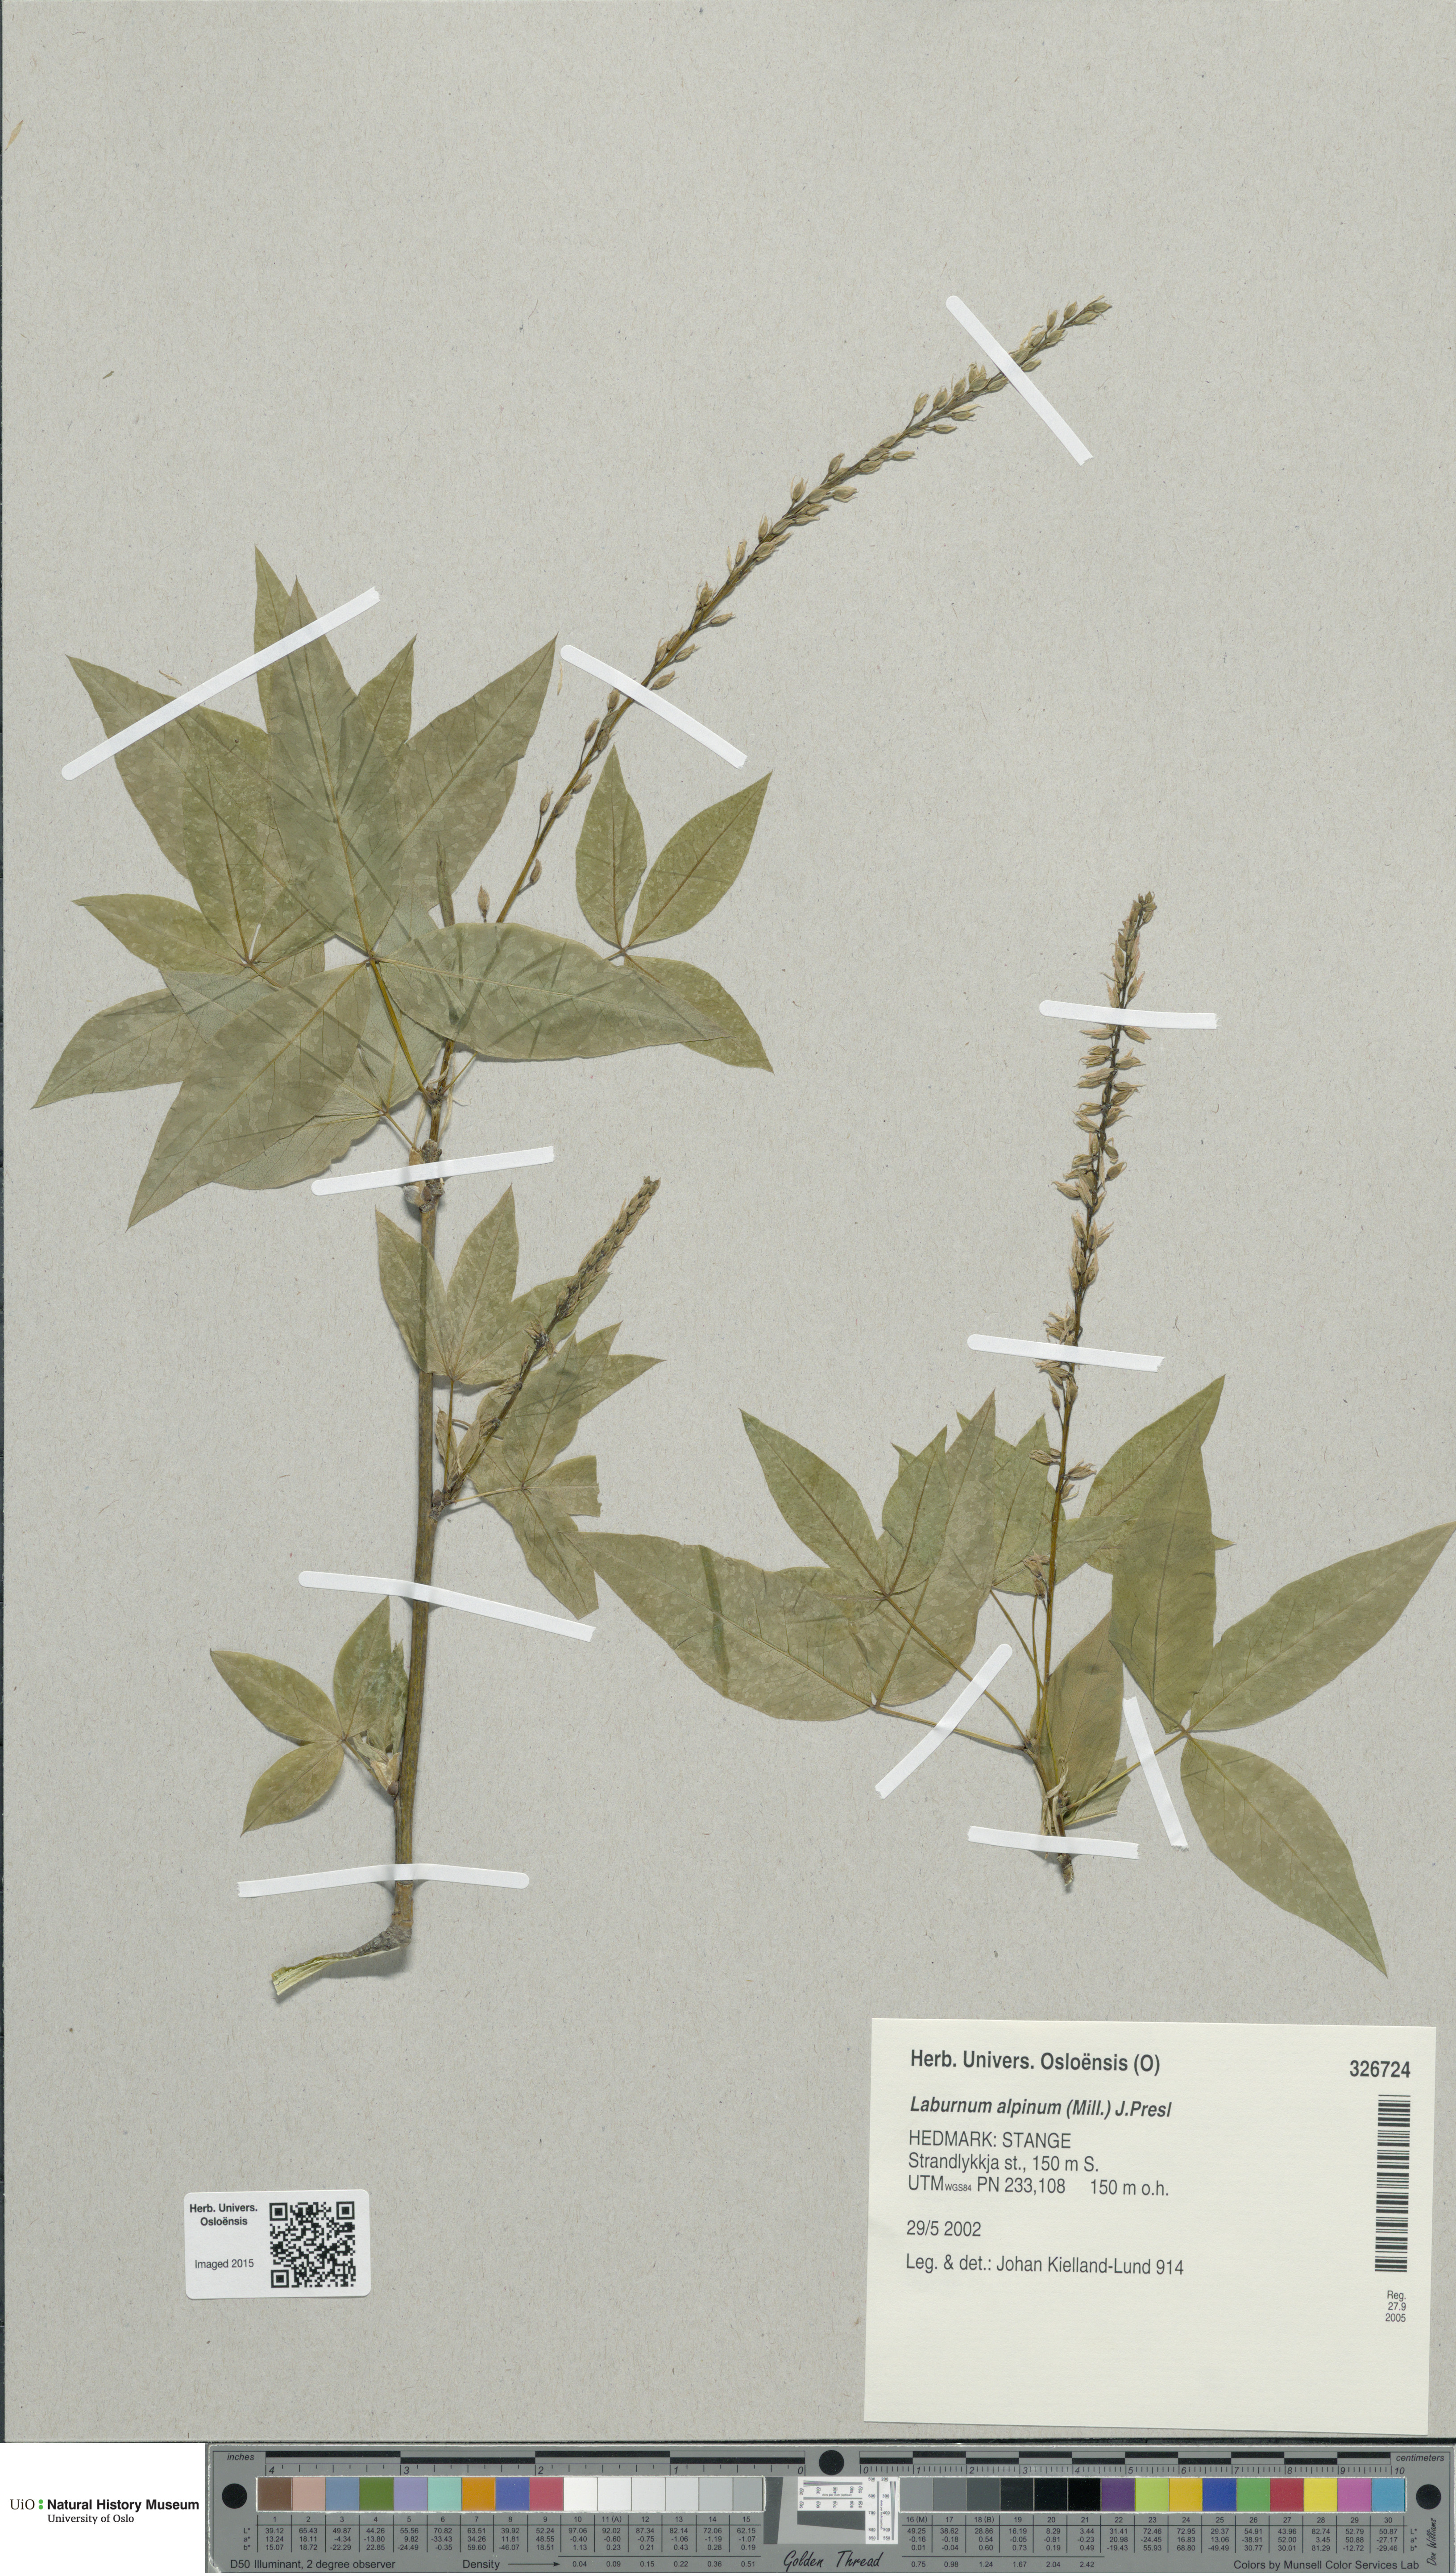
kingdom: Plantae
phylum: Tracheophyta
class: Magnoliopsida
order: Fabales
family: Fabaceae
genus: Laburnum
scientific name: Laburnum alpinum
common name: Scottish laburnum
